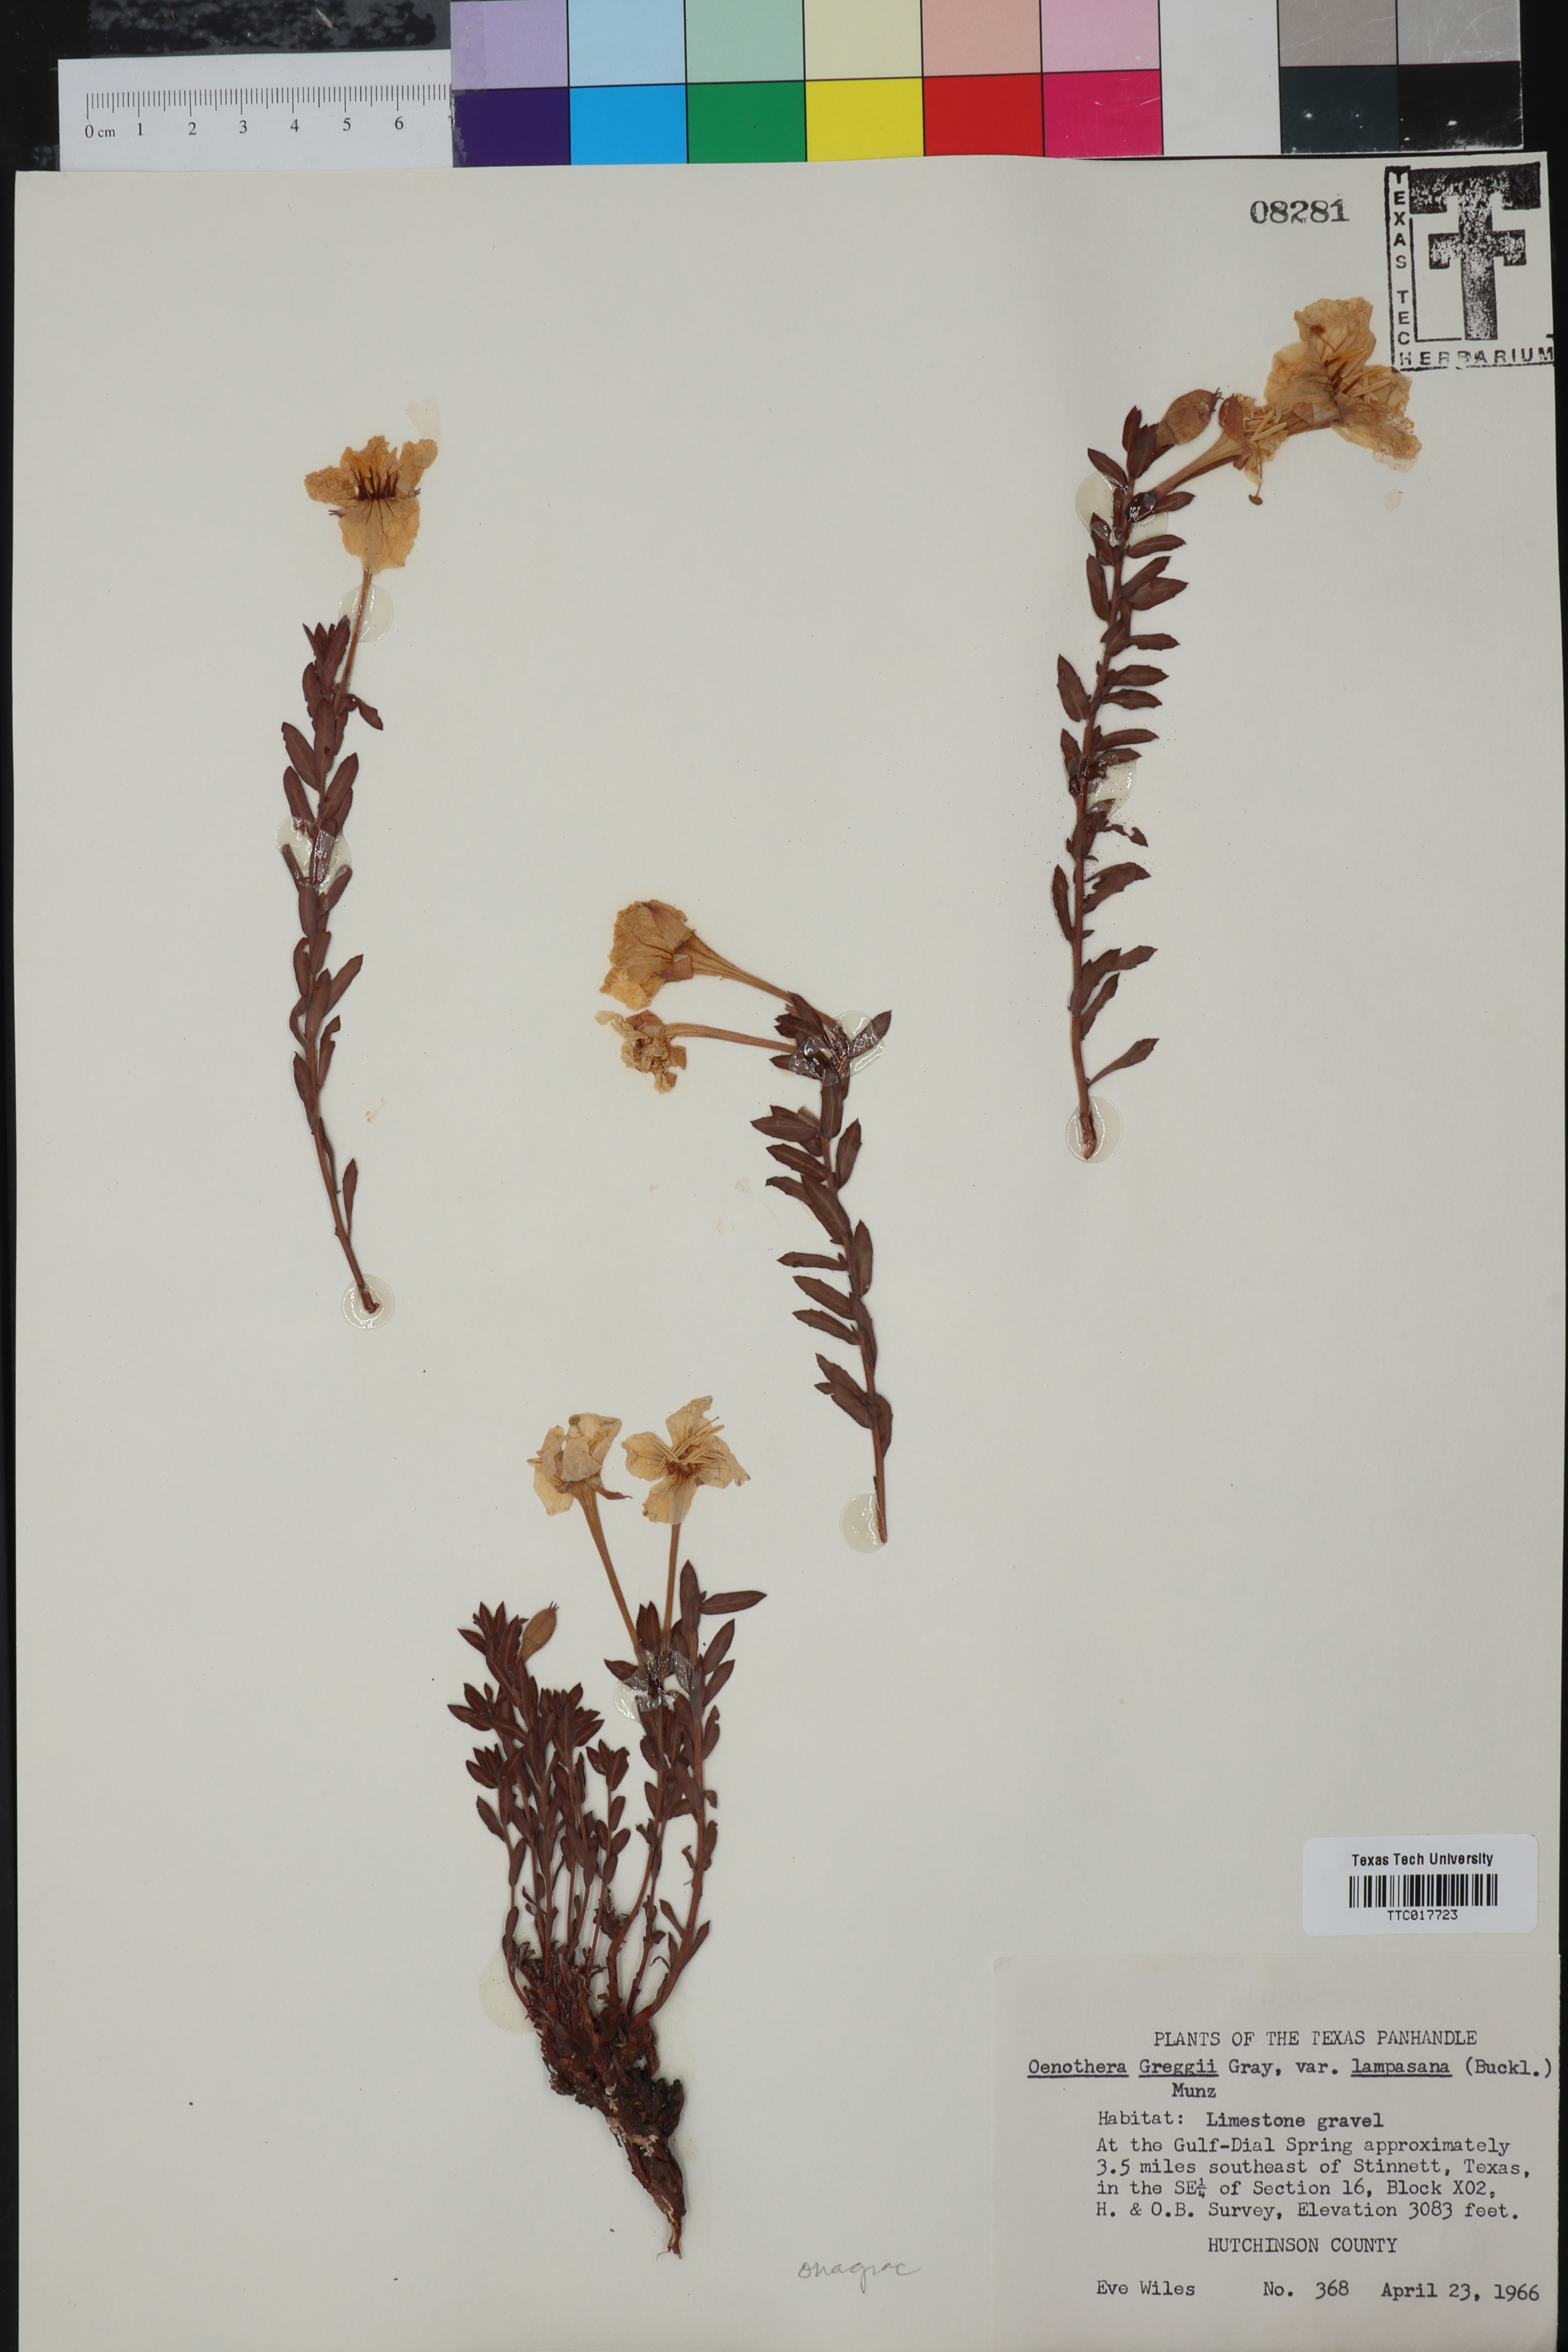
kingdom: Plantae
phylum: Tracheophyta
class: Magnoliopsida
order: Myrtales
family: Onagraceae
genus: Oenothera
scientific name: Oenothera hartwegii
